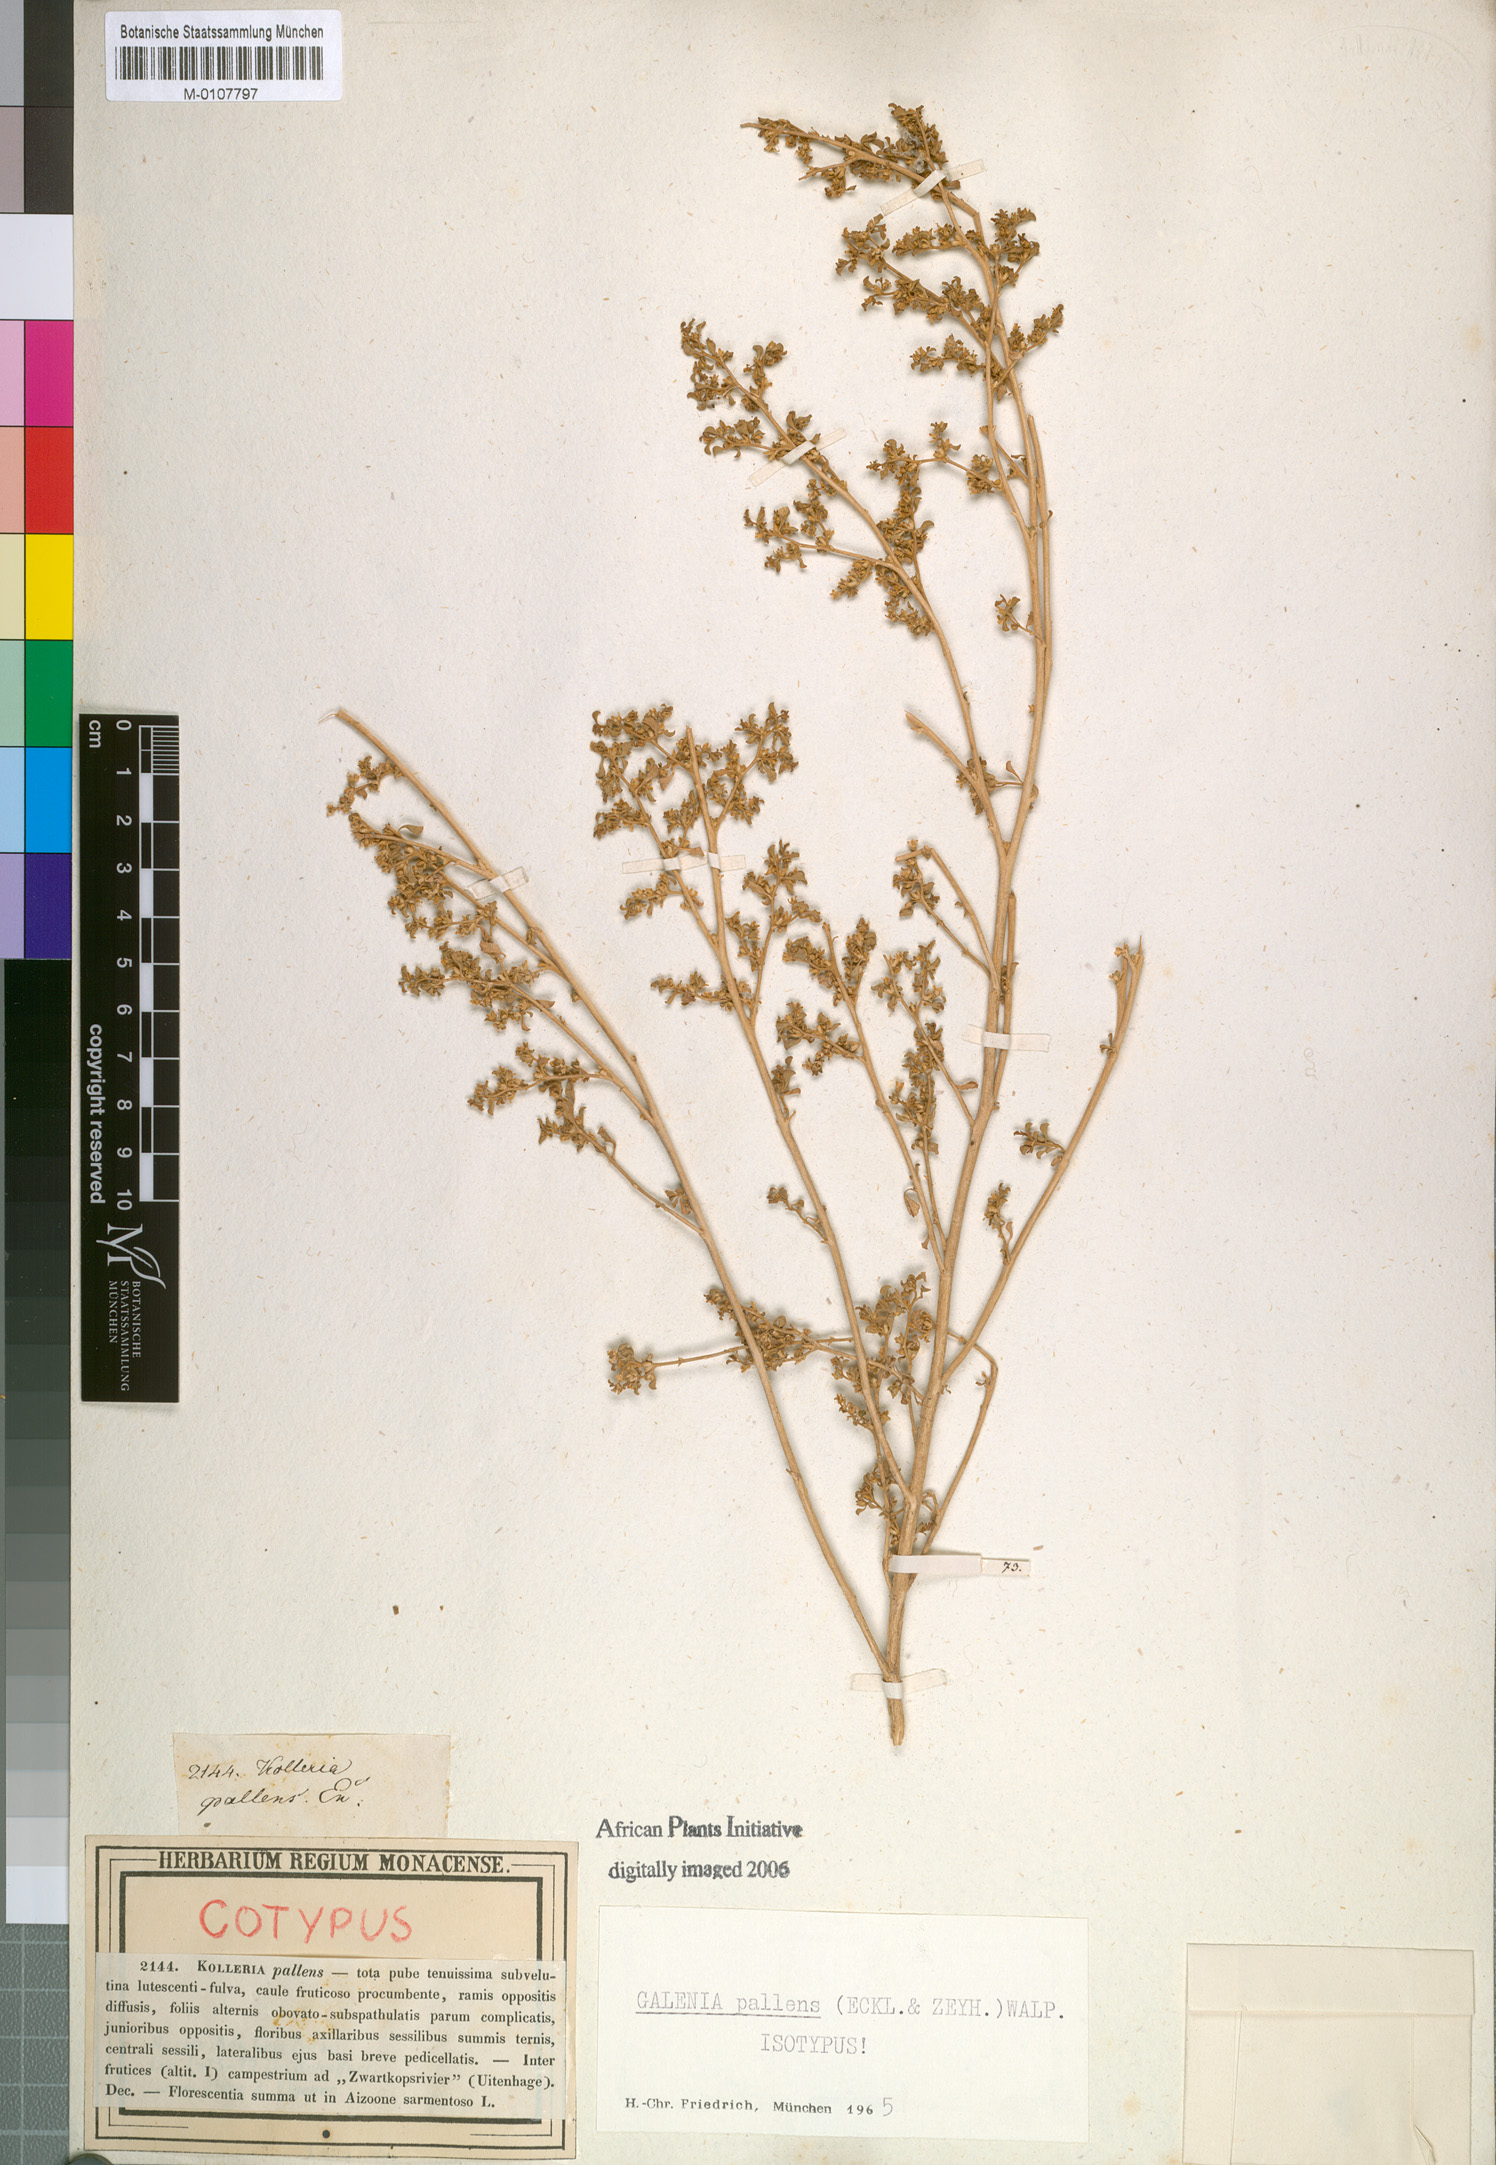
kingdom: Plantae
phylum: Tracheophyta
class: Magnoliopsida
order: Caryophyllales
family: Aizoaceae
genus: Aizoon
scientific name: Aizoon pallens
